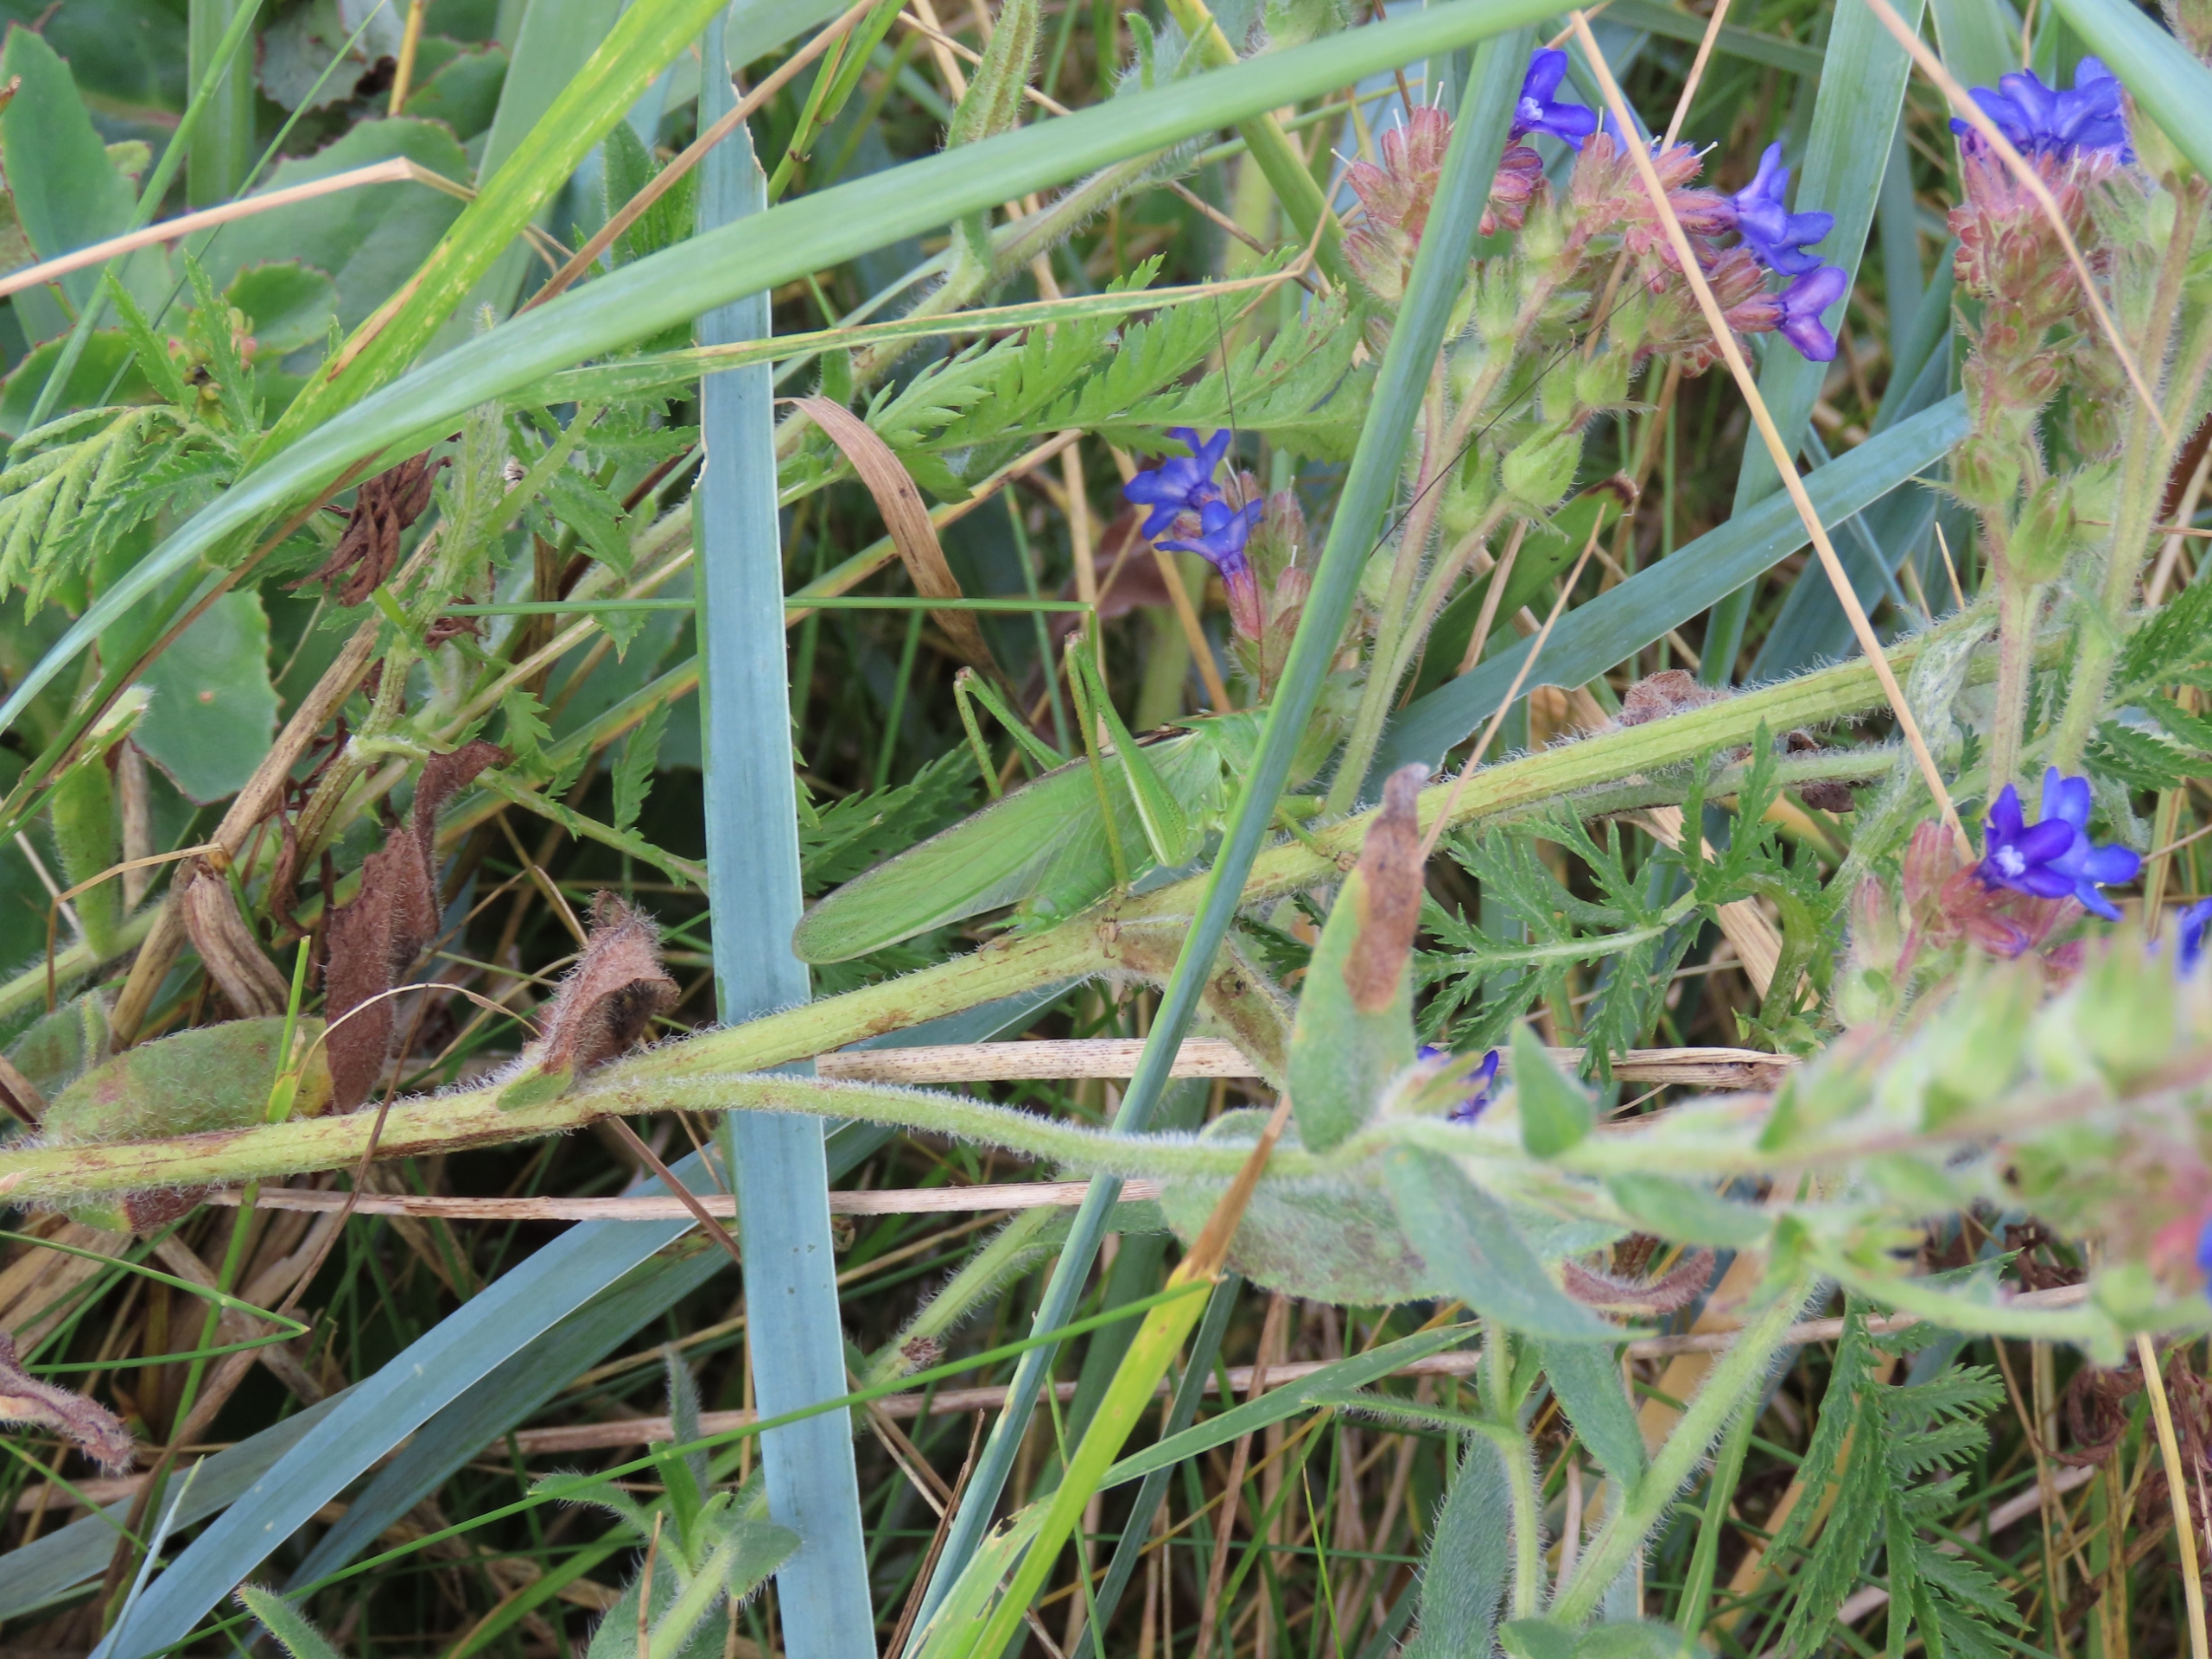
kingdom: Animalia
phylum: Arthropoda
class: Insecta
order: Orthoptera
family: Tettigoniidae
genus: Tettigonia
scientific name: Tettigonia viridissima
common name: Stor grøn løvgræshoppe
